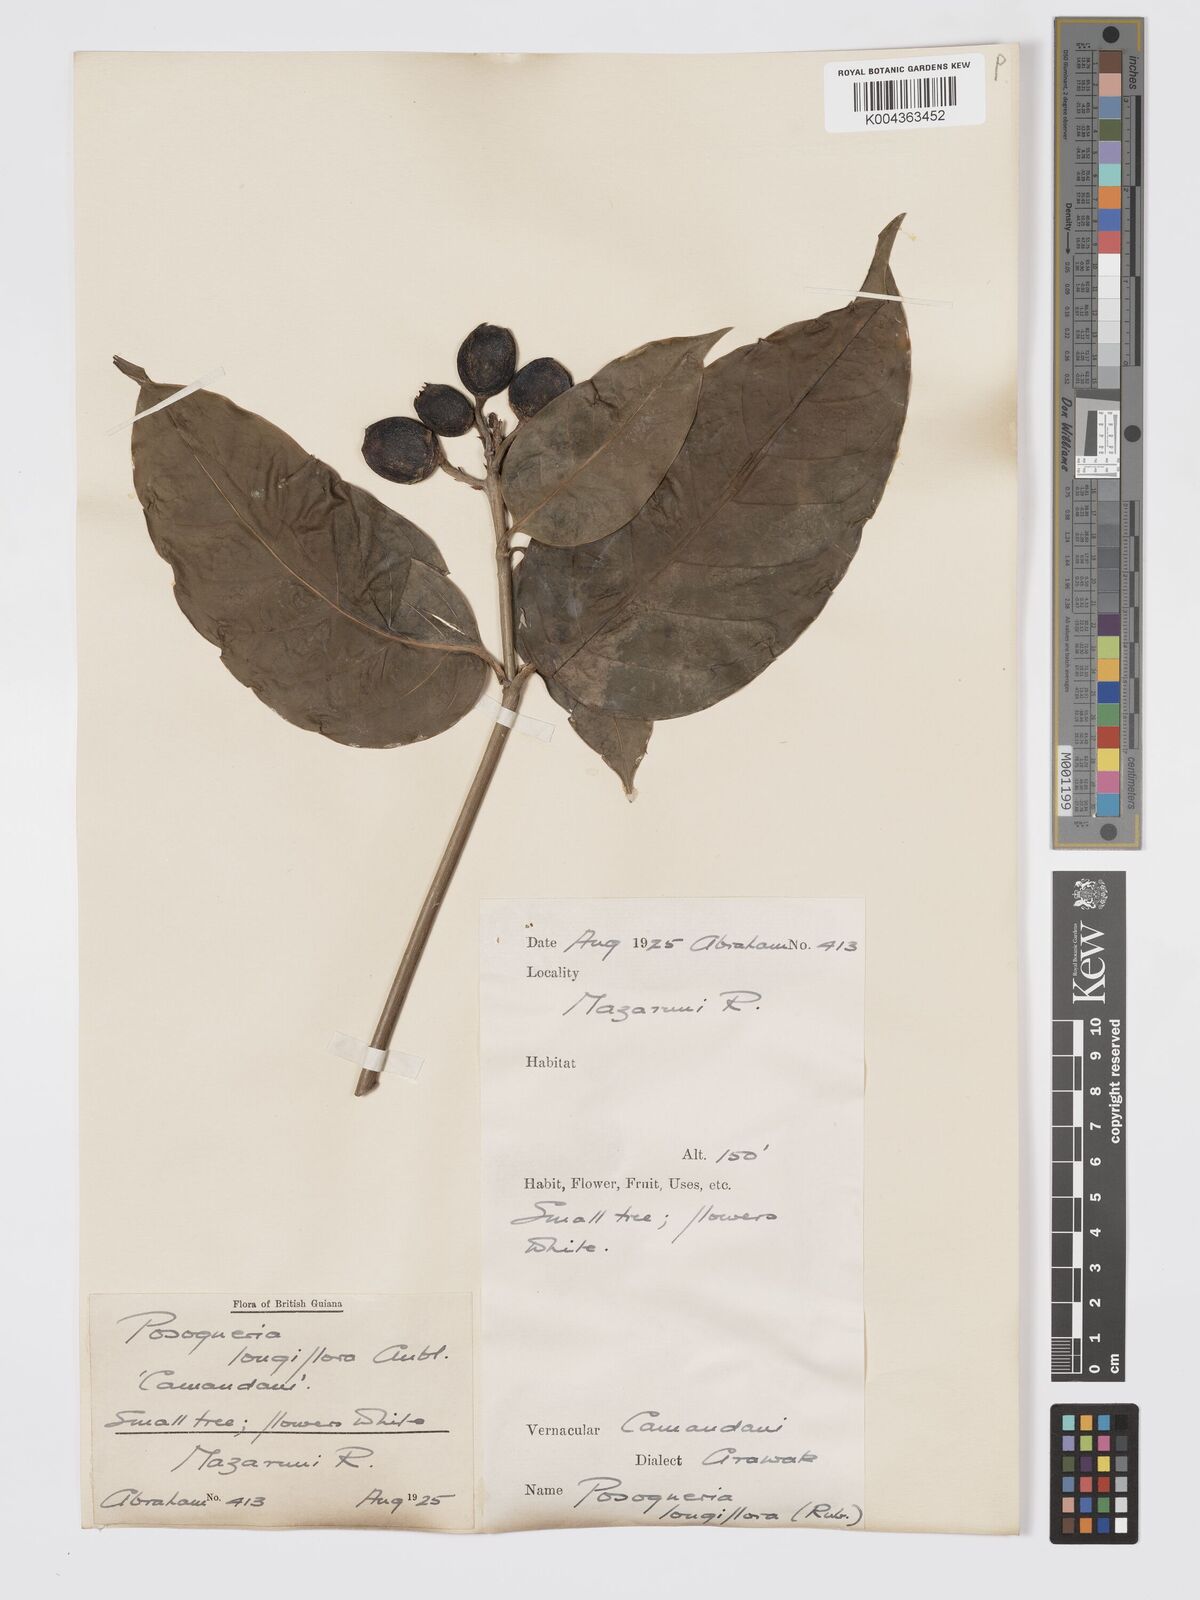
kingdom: Plantae
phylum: Tracheophyta
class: Magnoliopsida
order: Gentianales
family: Rubiaceae
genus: Posoqueria
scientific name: Posoqueria
